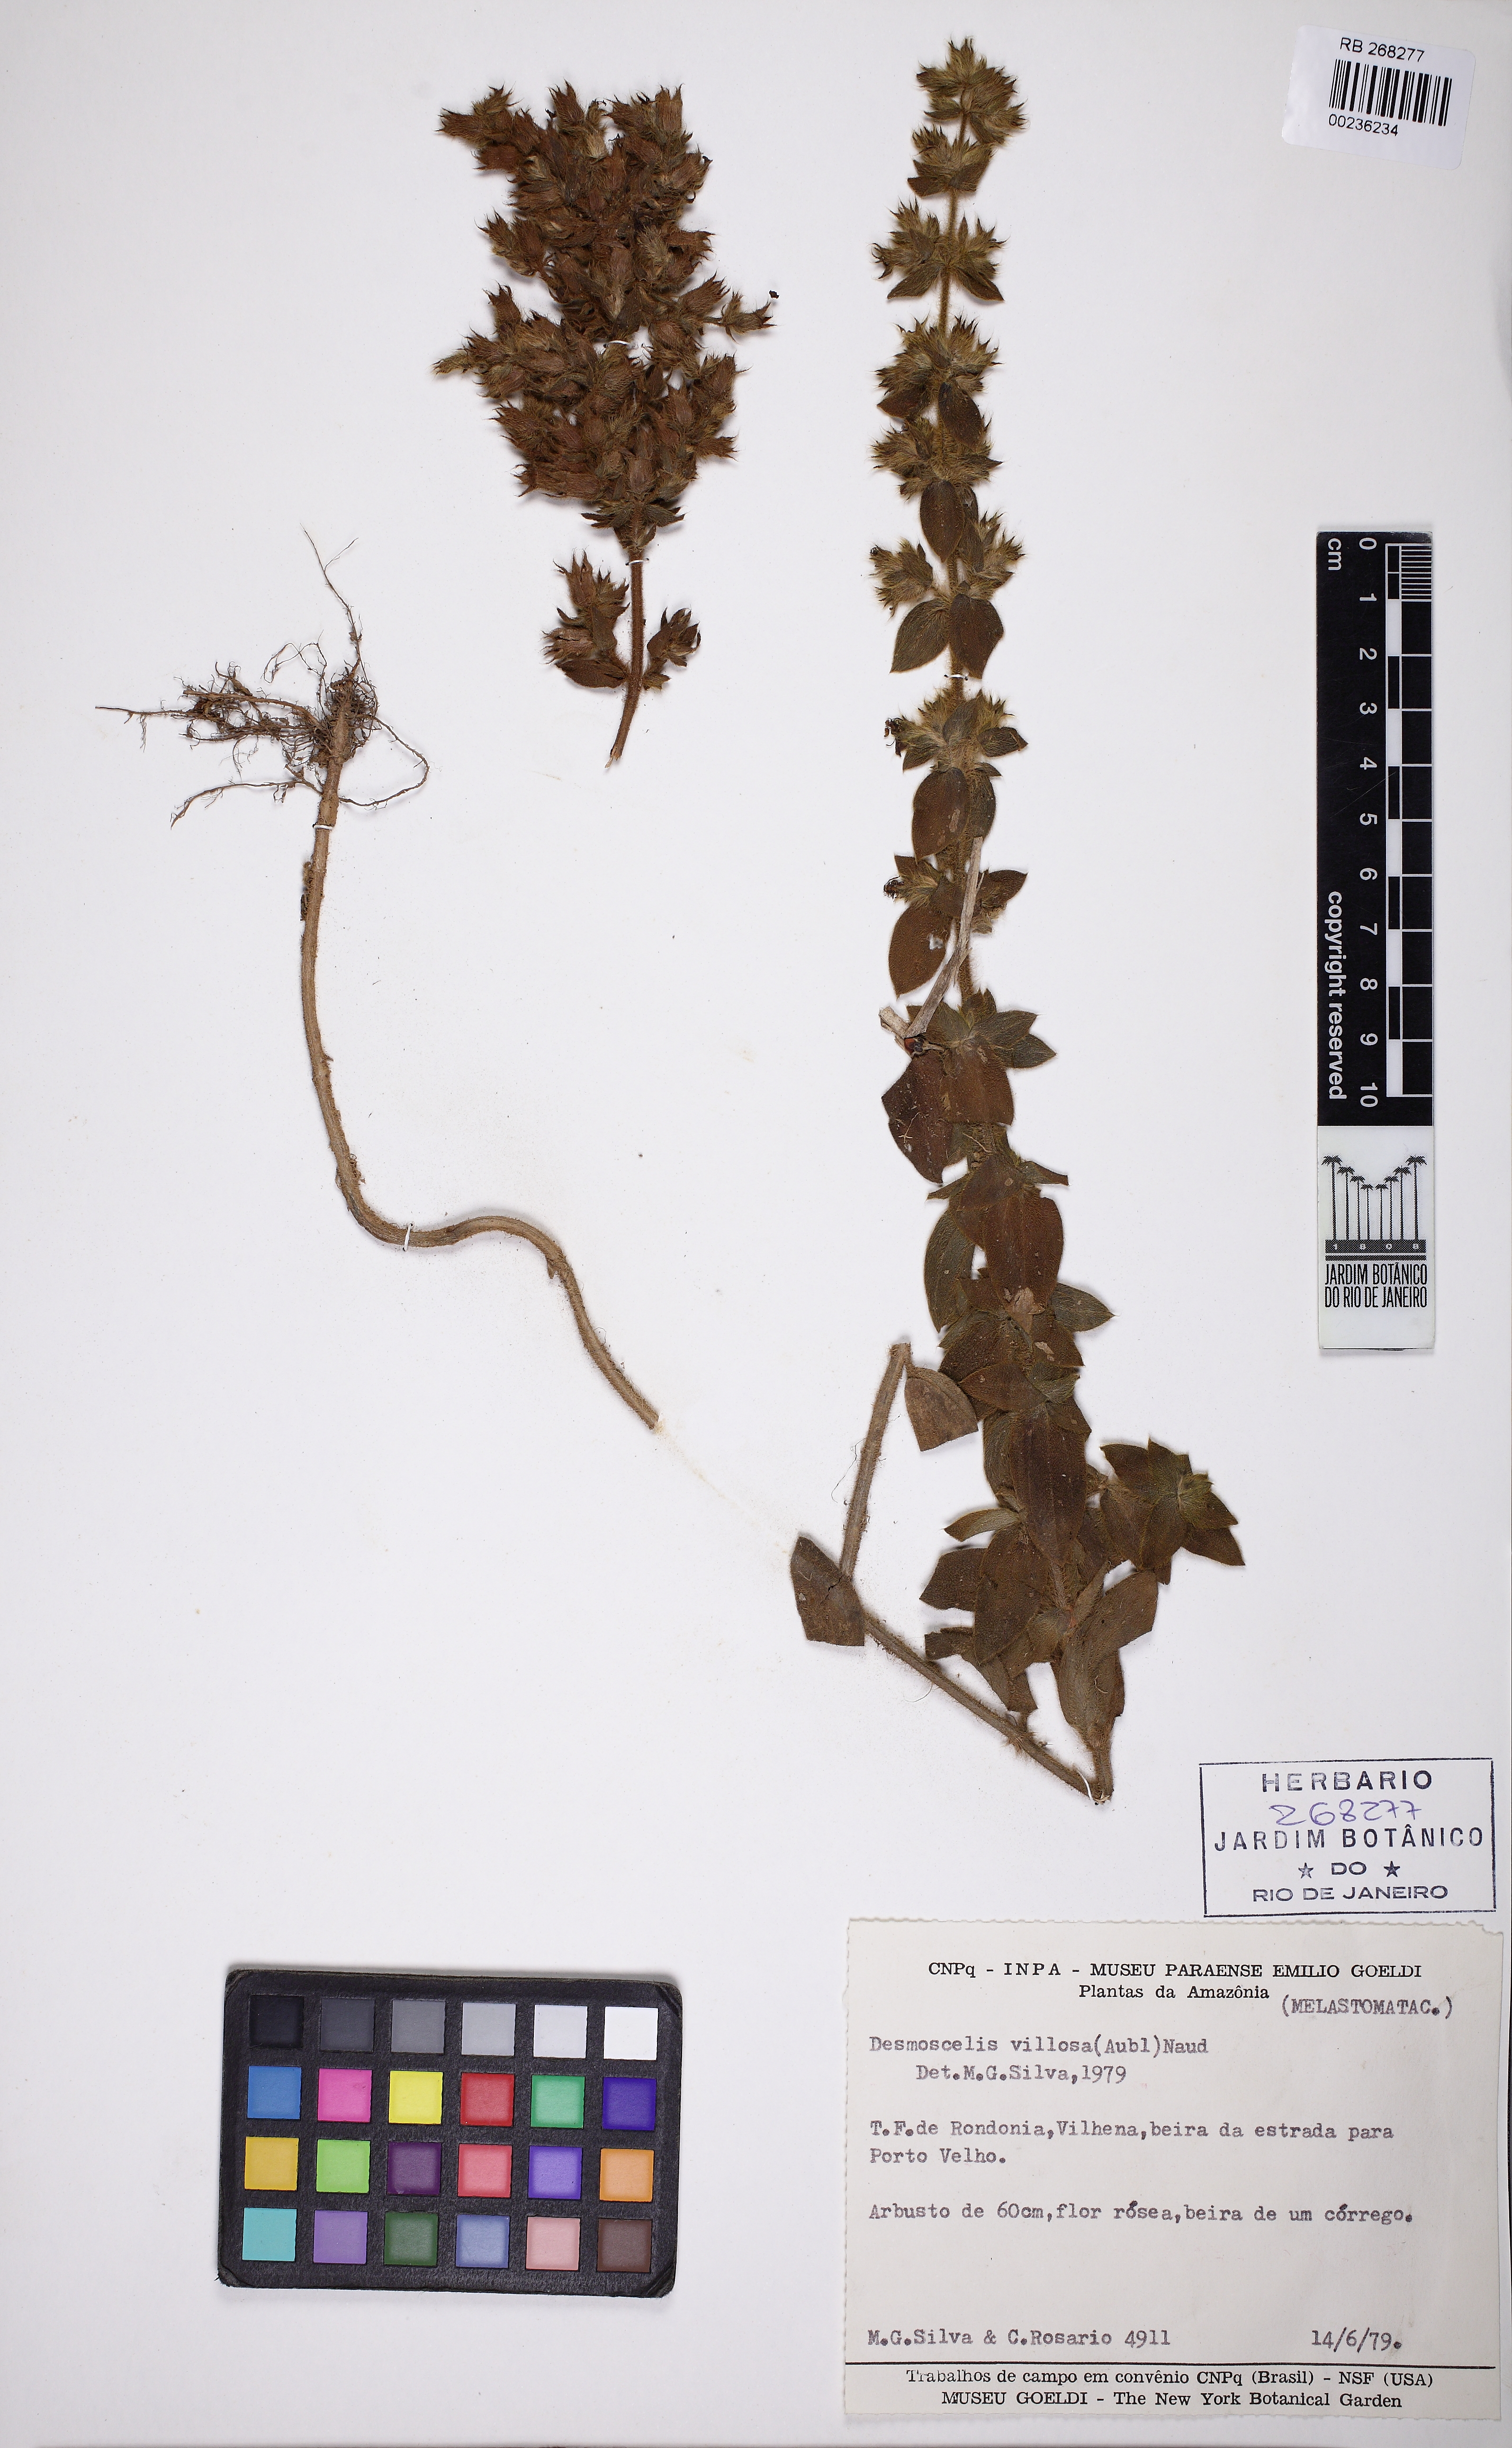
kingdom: Plantae
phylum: Tracheophyta
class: Magnoliopsida
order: Myrtales
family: Melastomataceae
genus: Desmoscelis
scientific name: Desmoscelis villosa
